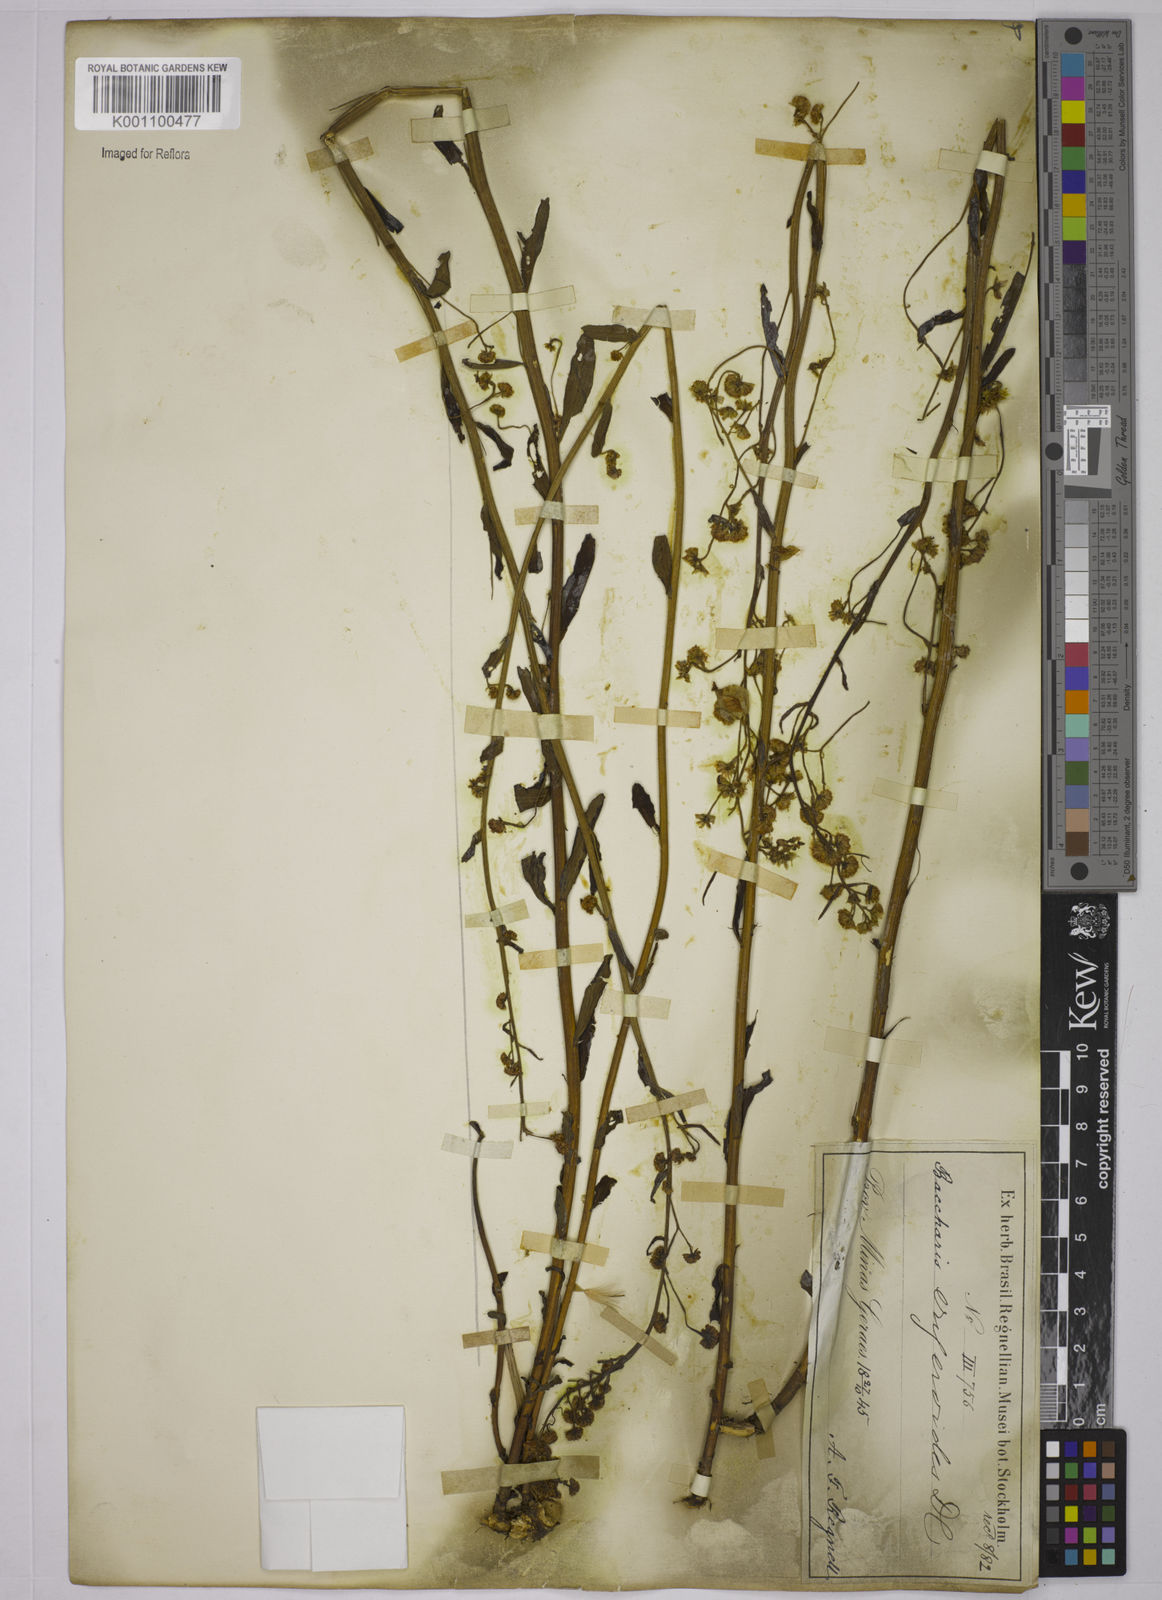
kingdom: Plantae
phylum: Tracheophyta
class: Magnoliopsida
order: Asterales
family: Asteraceae
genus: Baccharis
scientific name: Baccharis erigeroides
